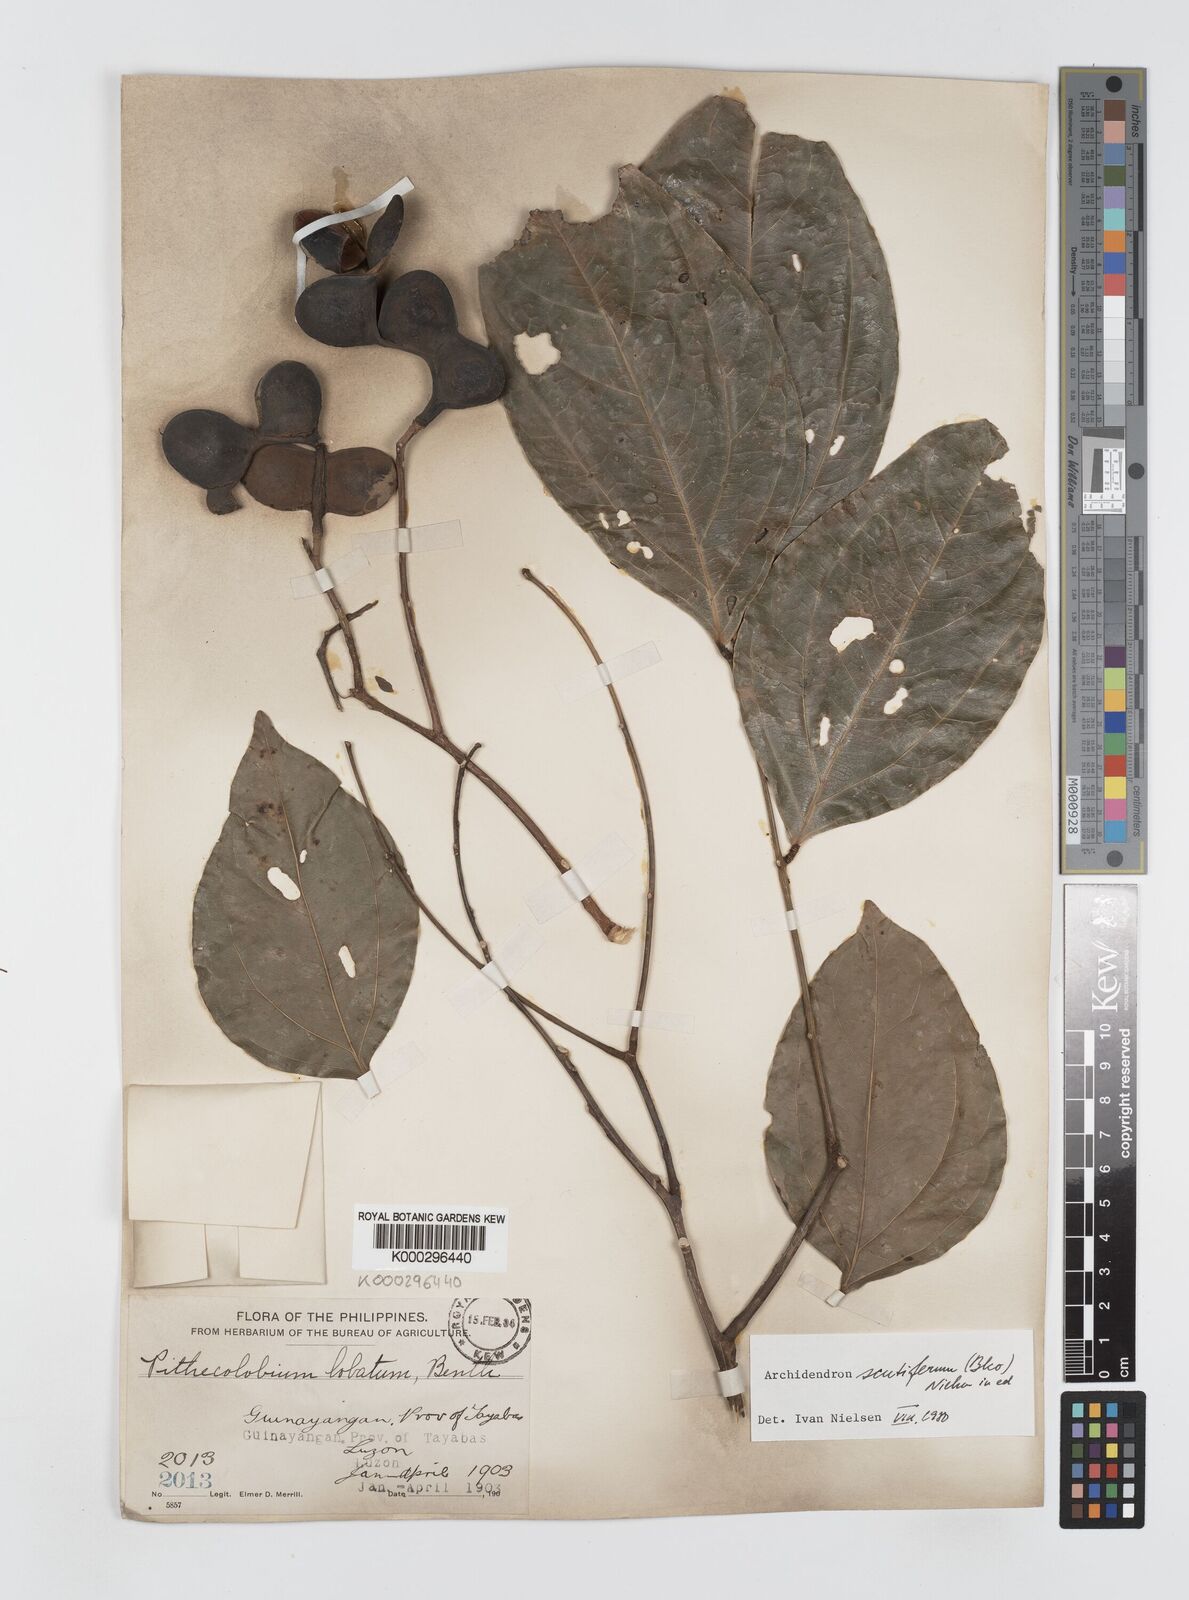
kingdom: Plantae
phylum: Tracheophyta
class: Magnoliopsida
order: Fabales
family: Fabaceae
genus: Archidendron
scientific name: Archidendron scutiferum
